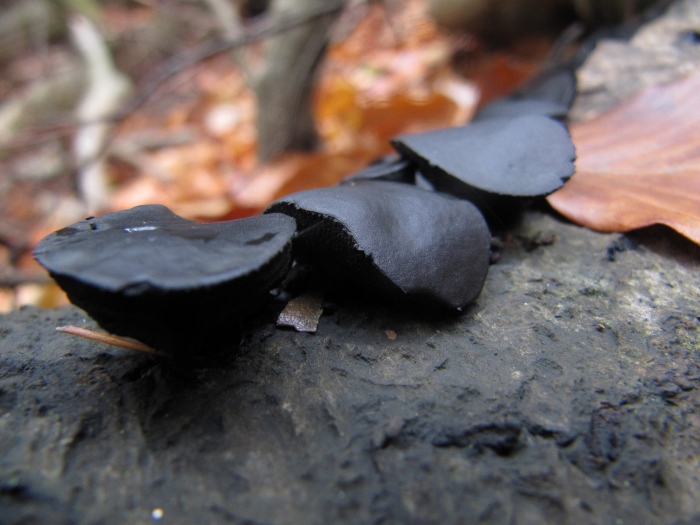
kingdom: Fungi
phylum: Ascomycota
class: Leotiomycetes
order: Phacidiales
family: Phacidiaceae
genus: Bulgaria
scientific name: Bulgaria inquinans
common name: afsmittende topsvamp
